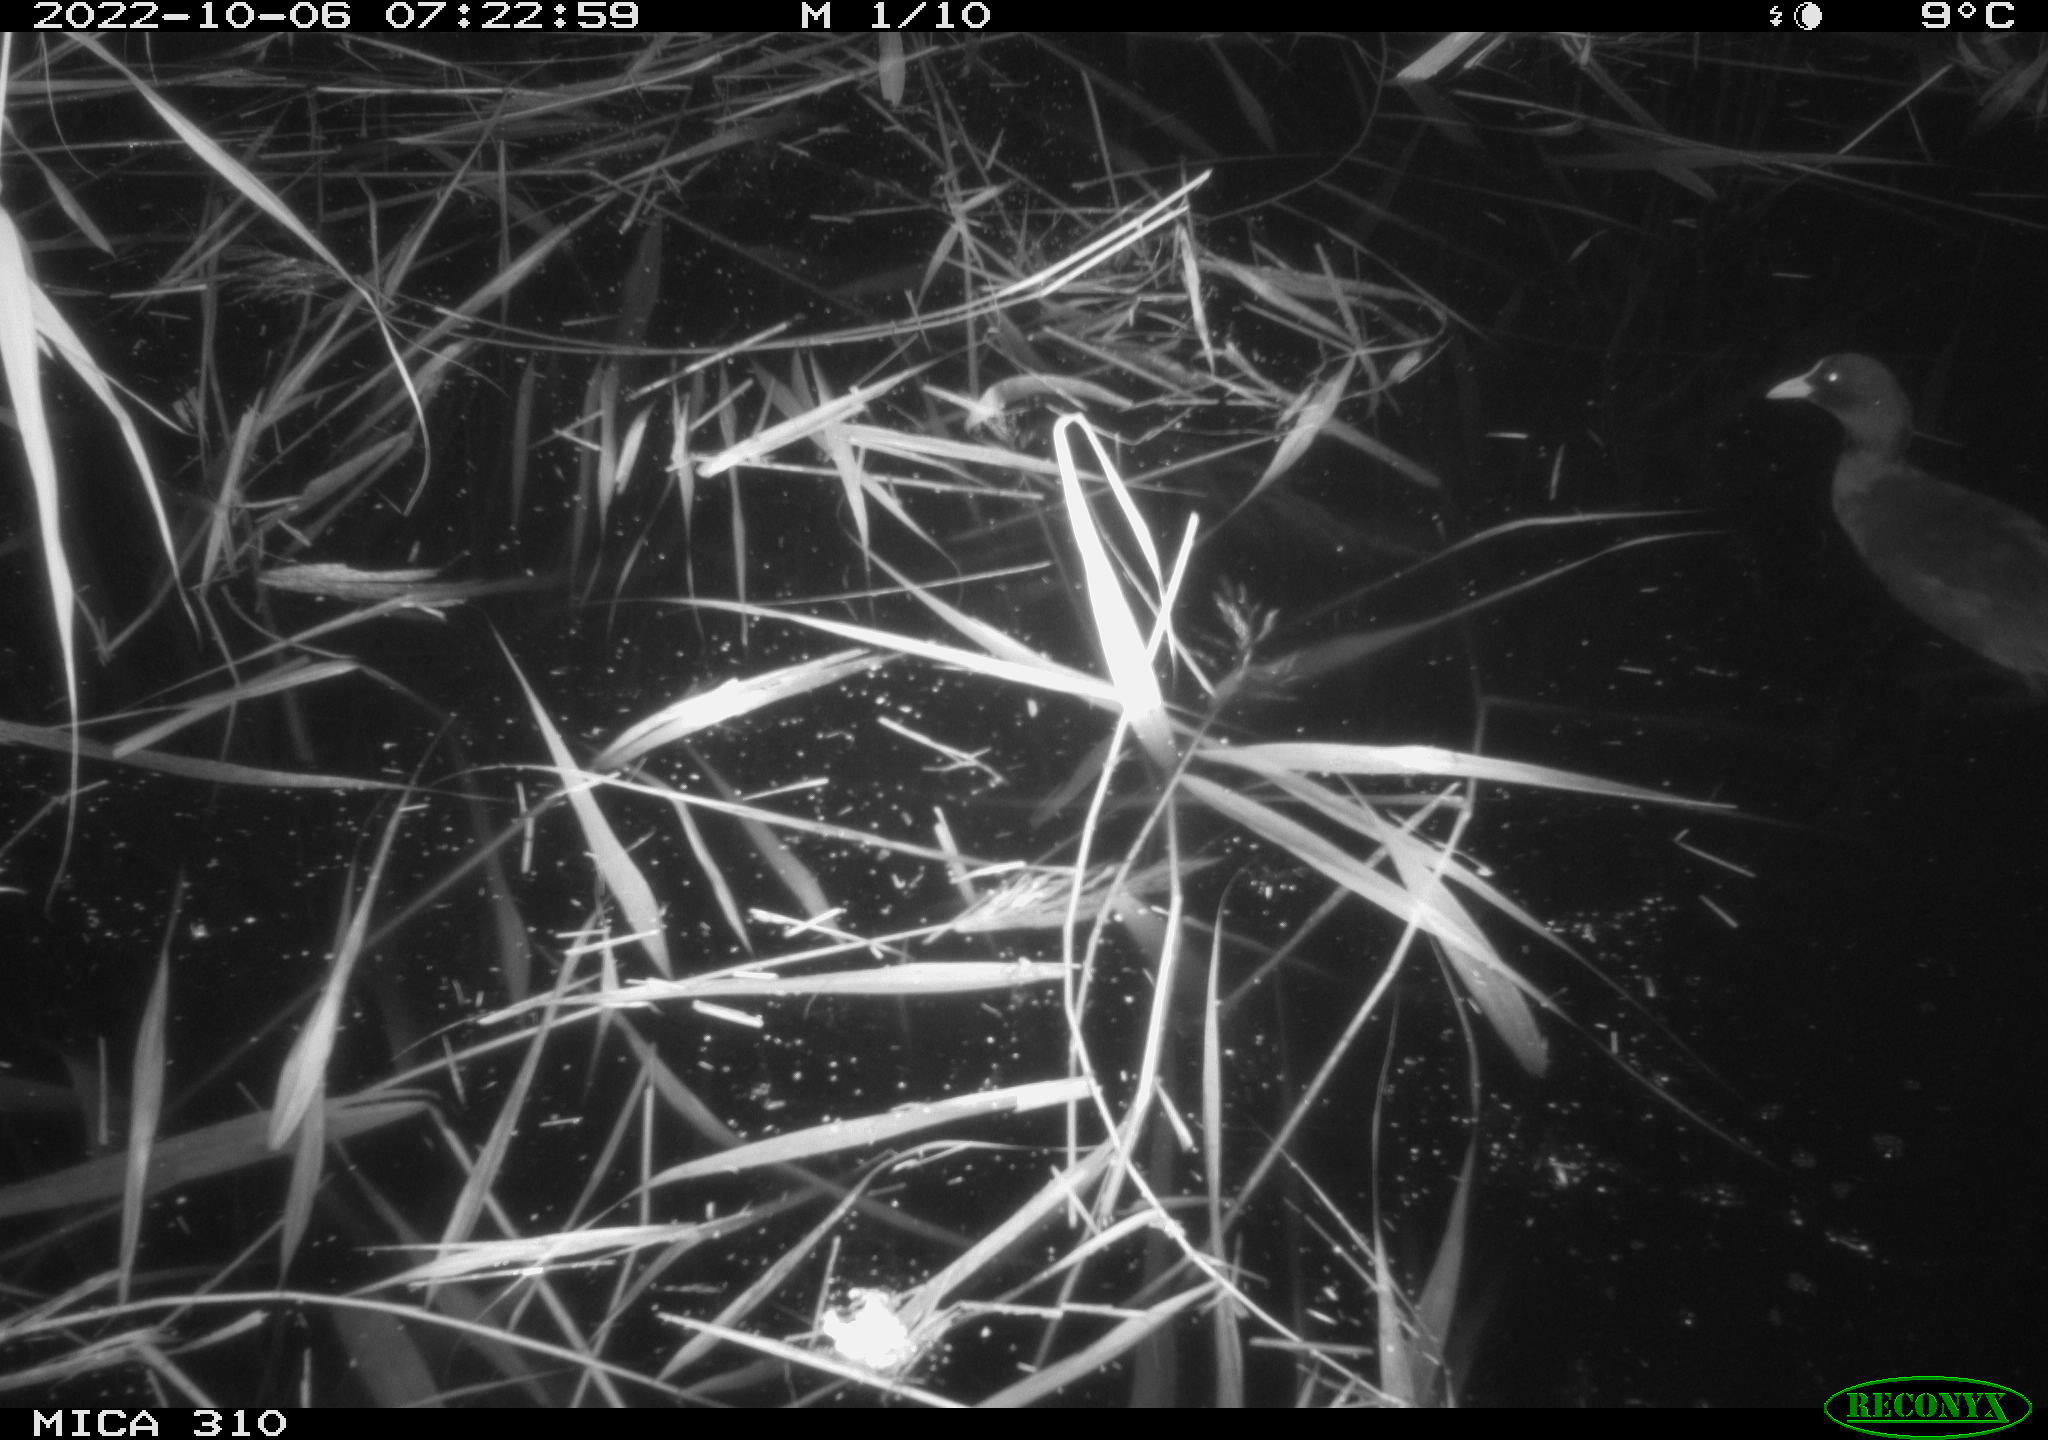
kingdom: Animalia
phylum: Chordata
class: Aves
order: Gruiformes
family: Rallidae
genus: Gallinula
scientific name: Gallinula chloropus
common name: Common moorhen
